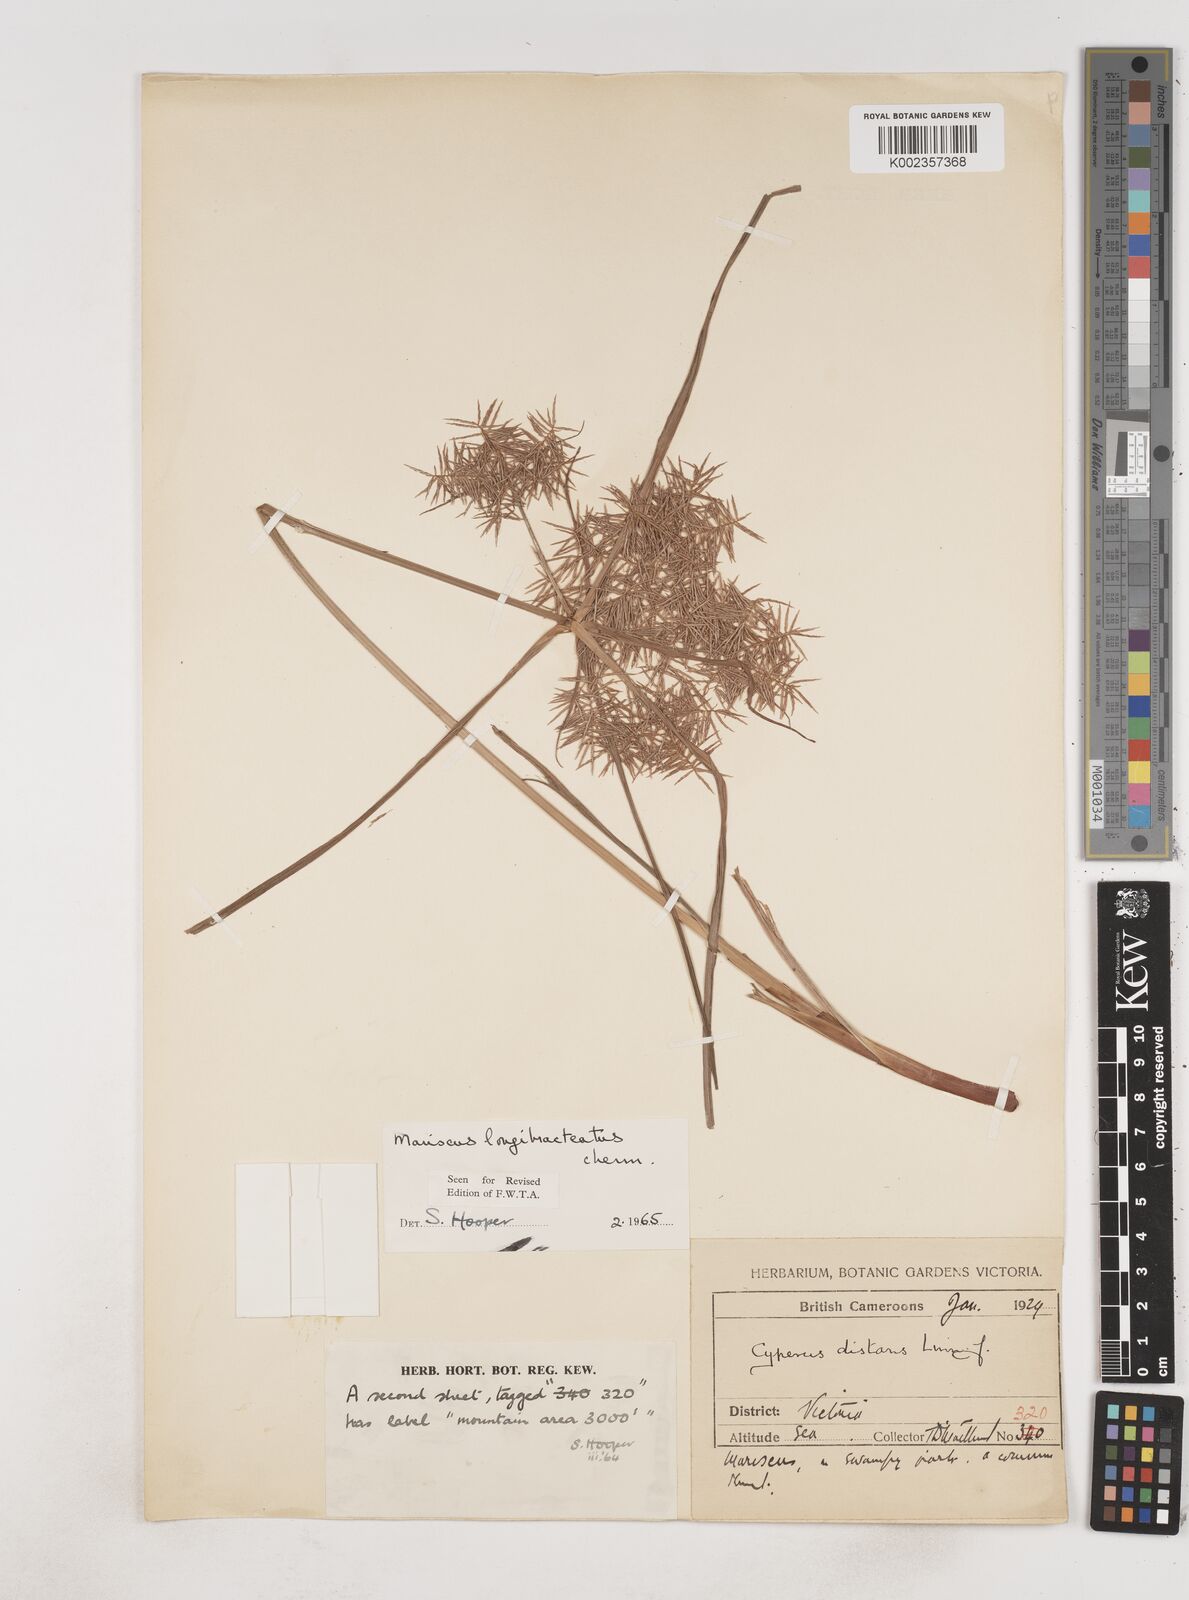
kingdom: Plantae
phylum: Tracheophyta
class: Liliopsida
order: Poales
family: Cyperaceae
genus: Cyperus
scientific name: Cyperus distans
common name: Slender cyperus
